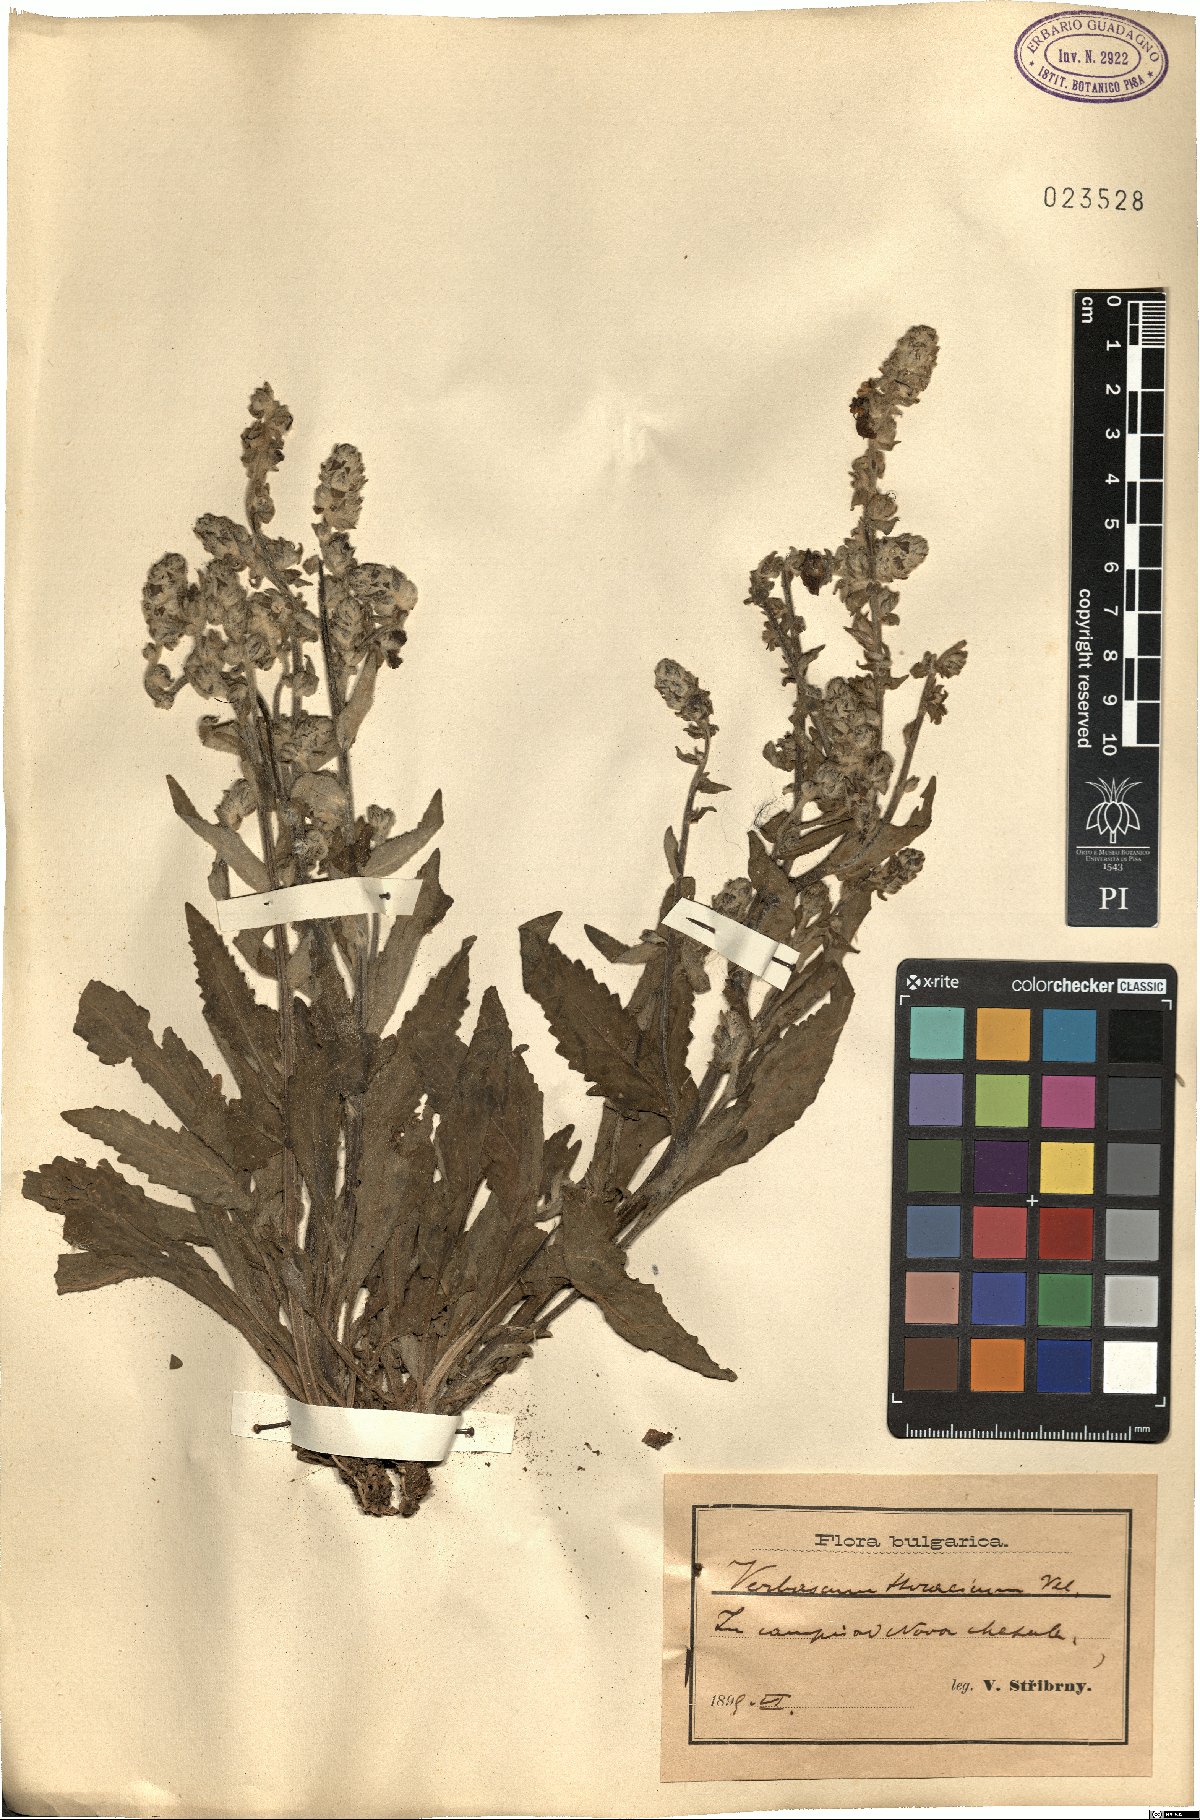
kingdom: Plantae
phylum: Tracheophyta
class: Magnoliopsida
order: Lamiales
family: Scrophulariaceae
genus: Verbascum
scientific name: Verbascum ovalifolium
